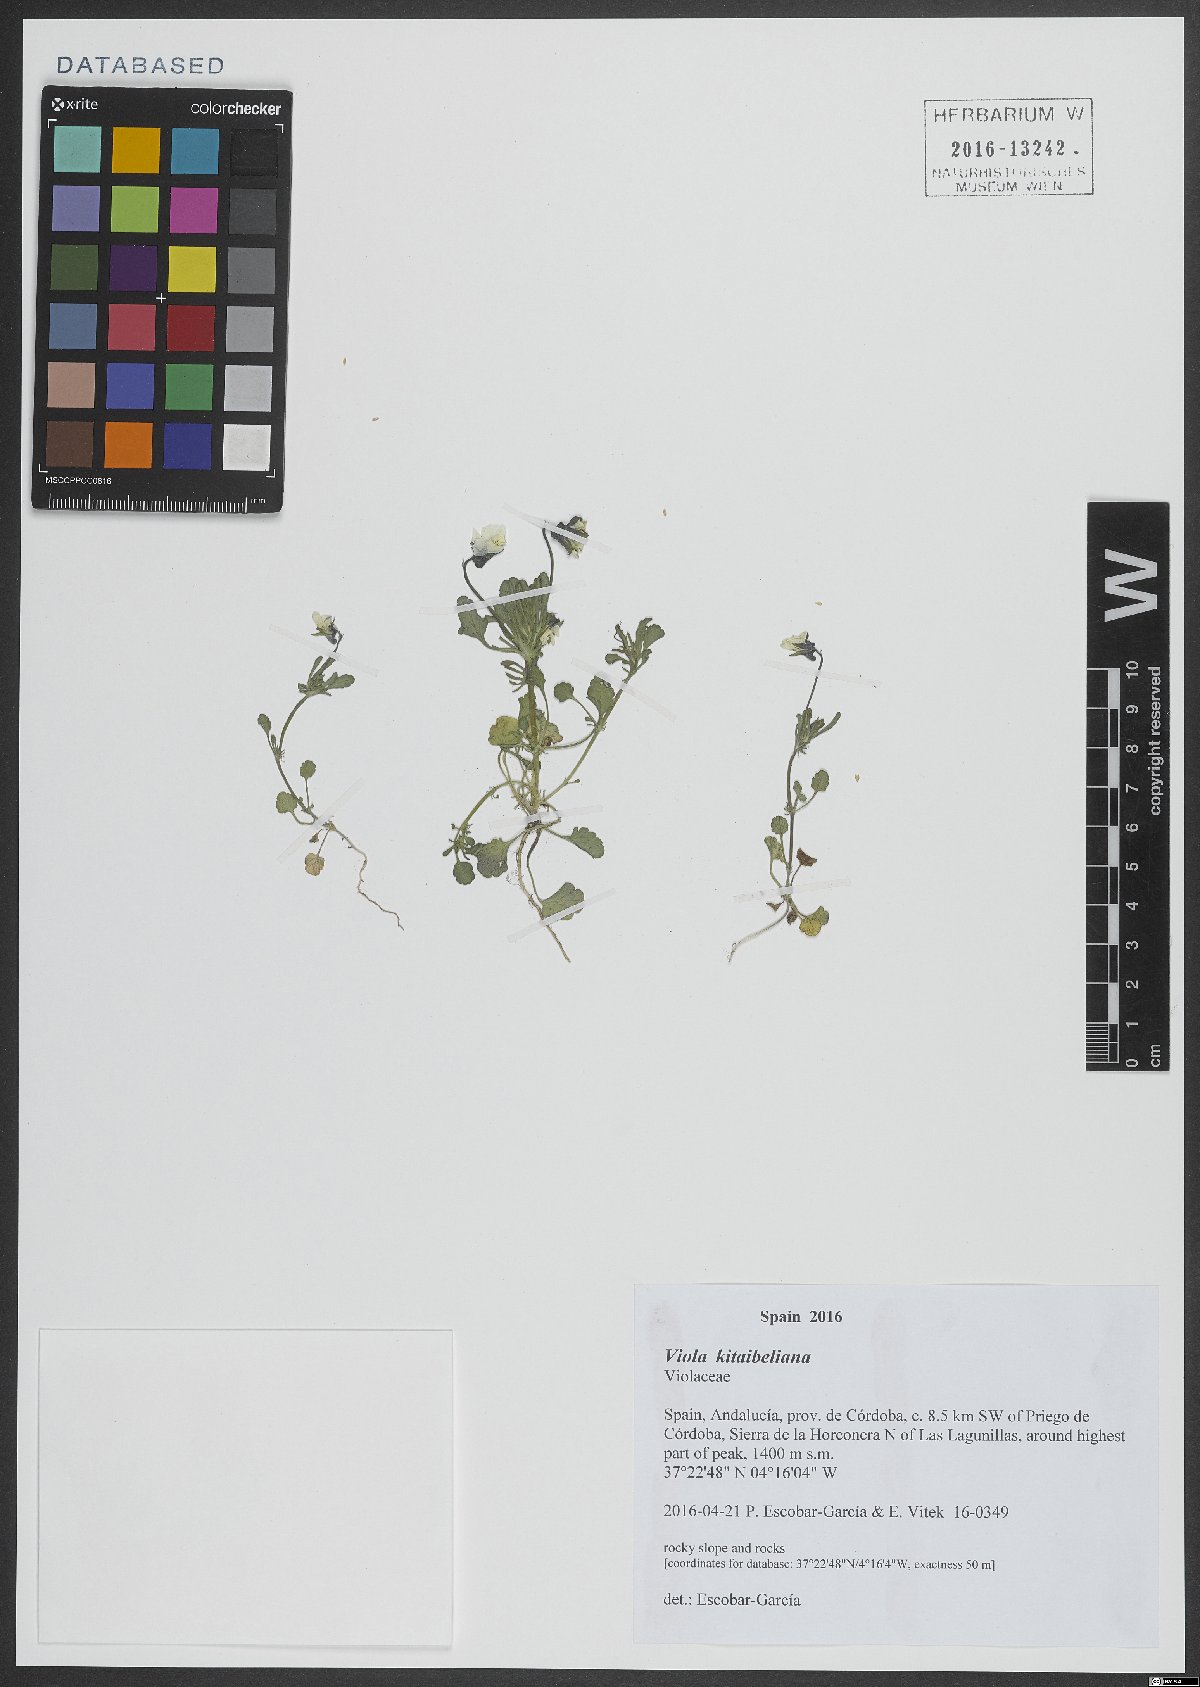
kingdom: Plantae
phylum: Tracheophyta
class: Magnoliopsida
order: Malpighiales
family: Violaceae
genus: Viola
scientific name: Viola kitaibeliana
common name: Dwarf pansy
